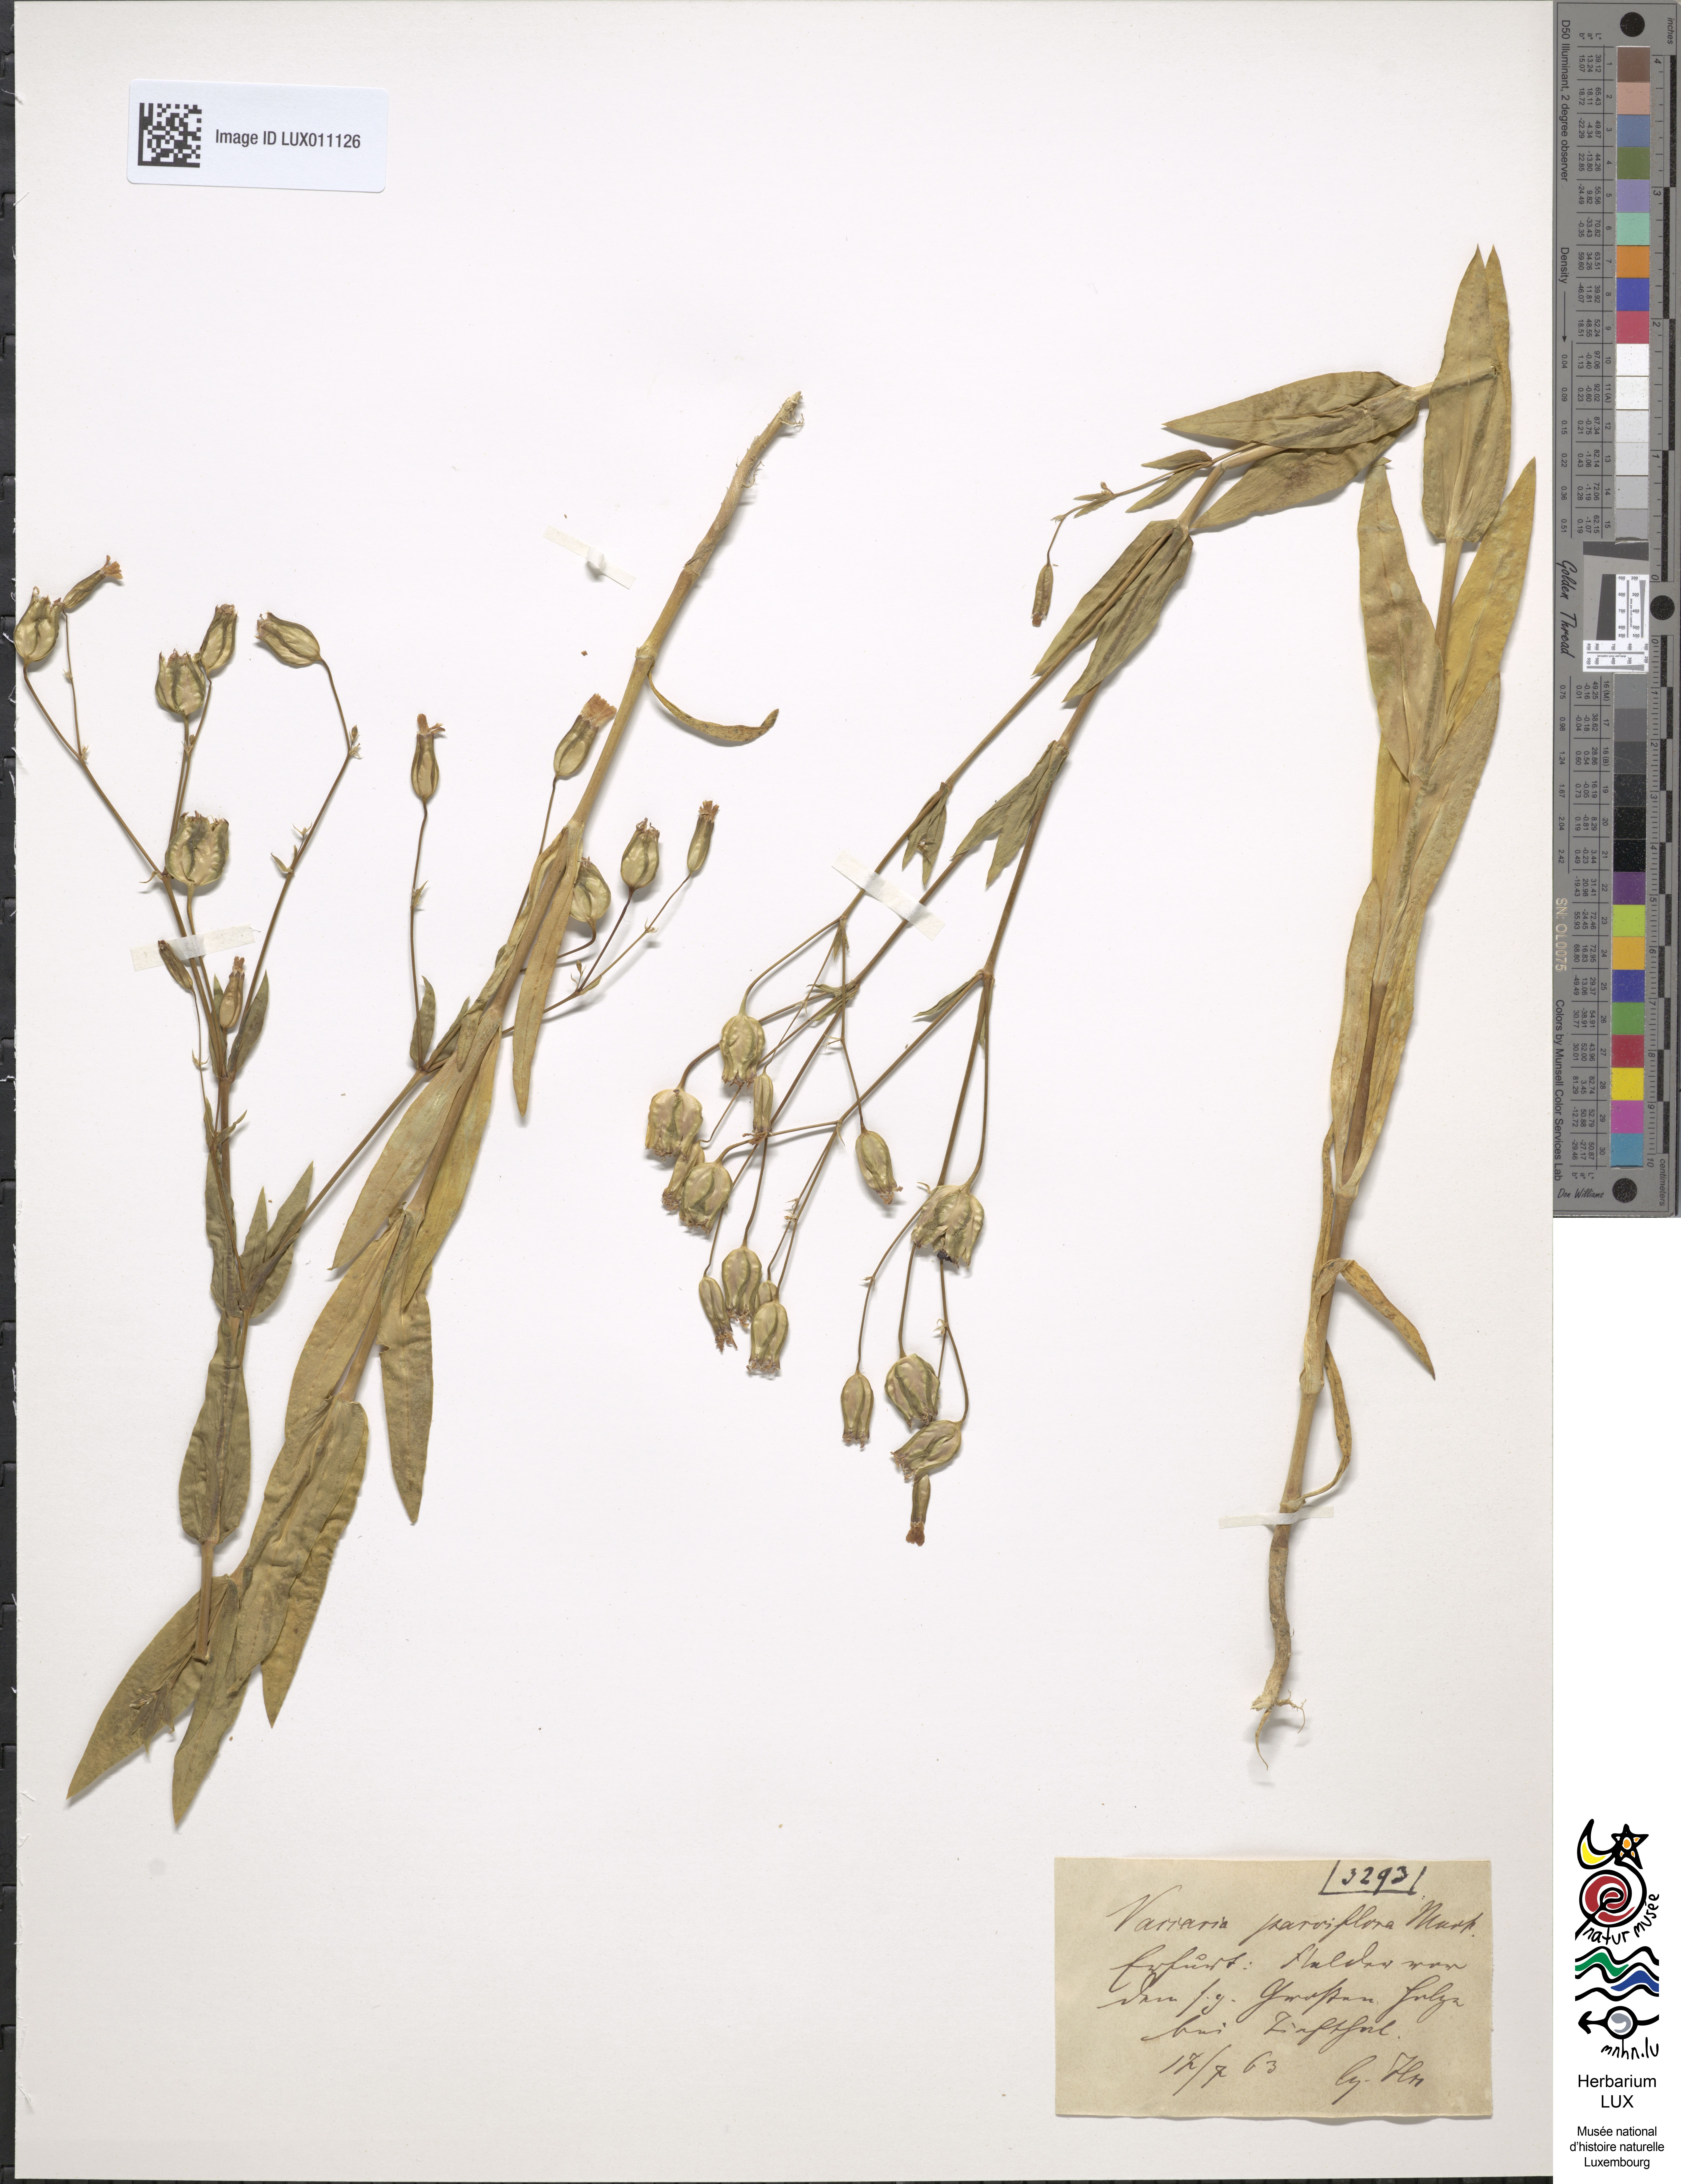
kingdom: Plantae
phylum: Tracheophyta
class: Magnoliopsida
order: Caryophyllales
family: Caryophyllaceae
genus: Gypsophila
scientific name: Gypsophila vaccaria
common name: Cow soapwort
